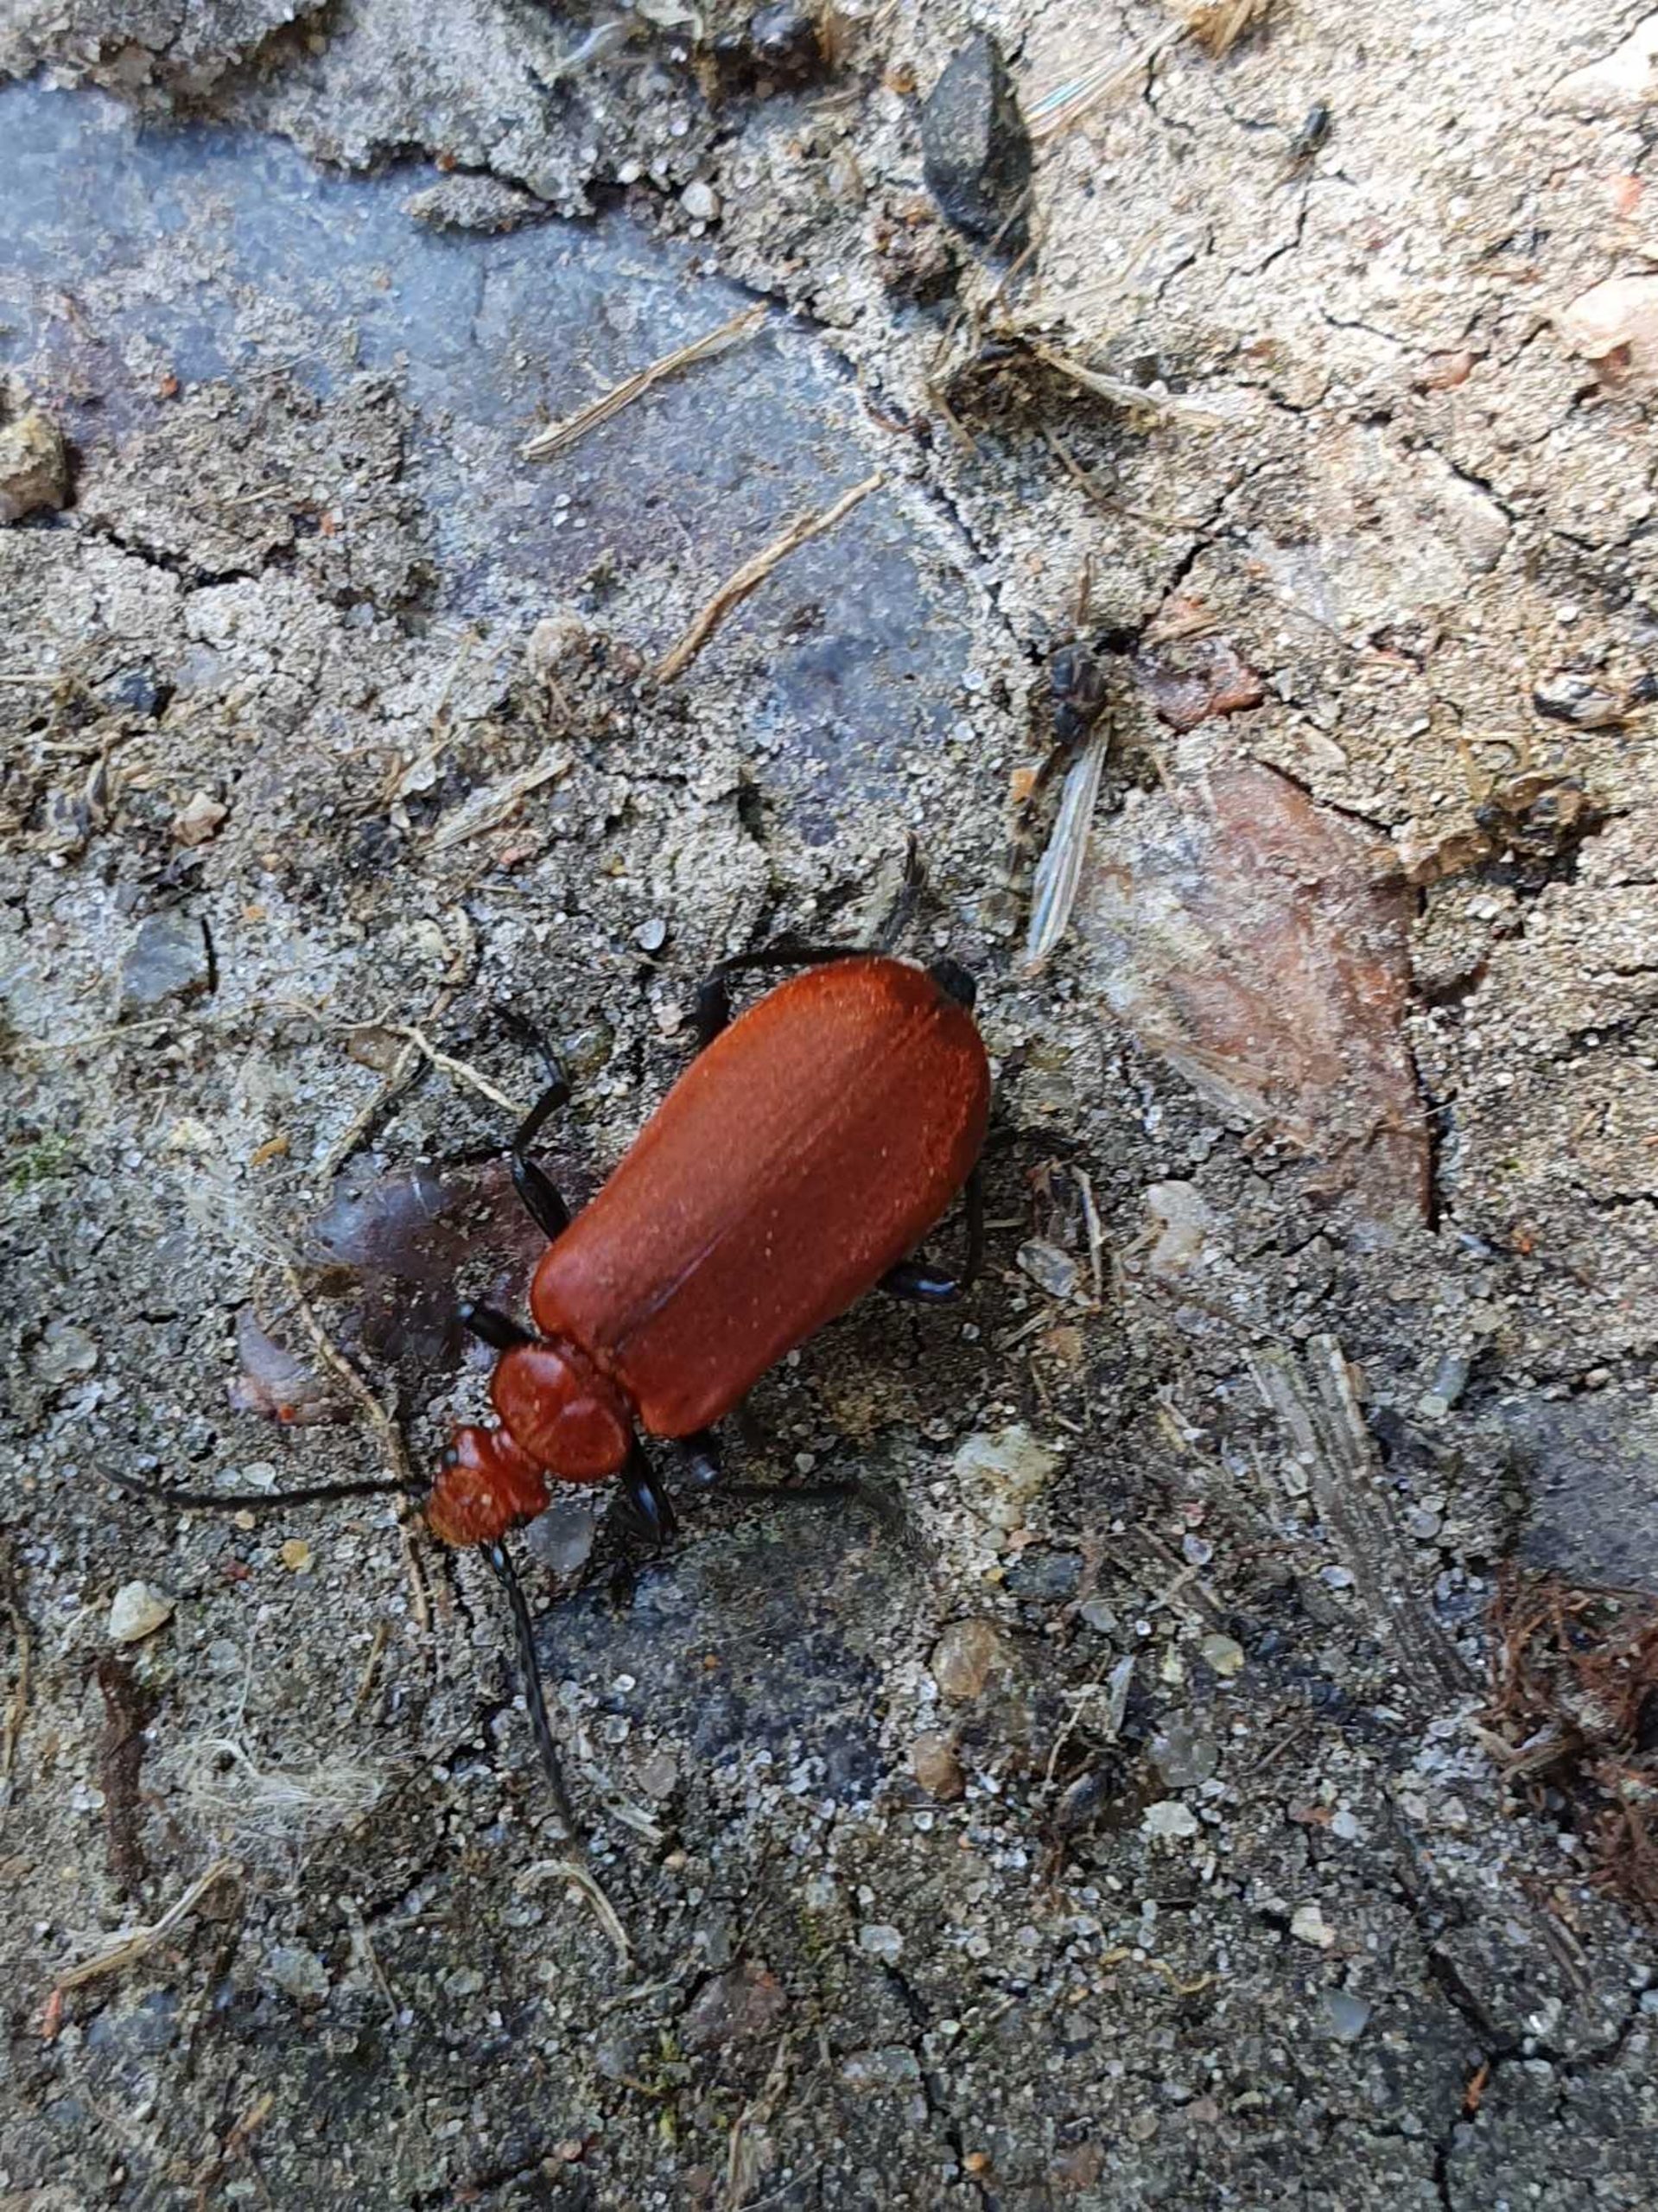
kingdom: Animalia
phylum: Arthropoda
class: Insecta
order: Coleoptera
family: Pyrochroidae
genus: Pyrochroa
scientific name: Pyrochroa serraticornis
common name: Rødhovedet kardinalbille
